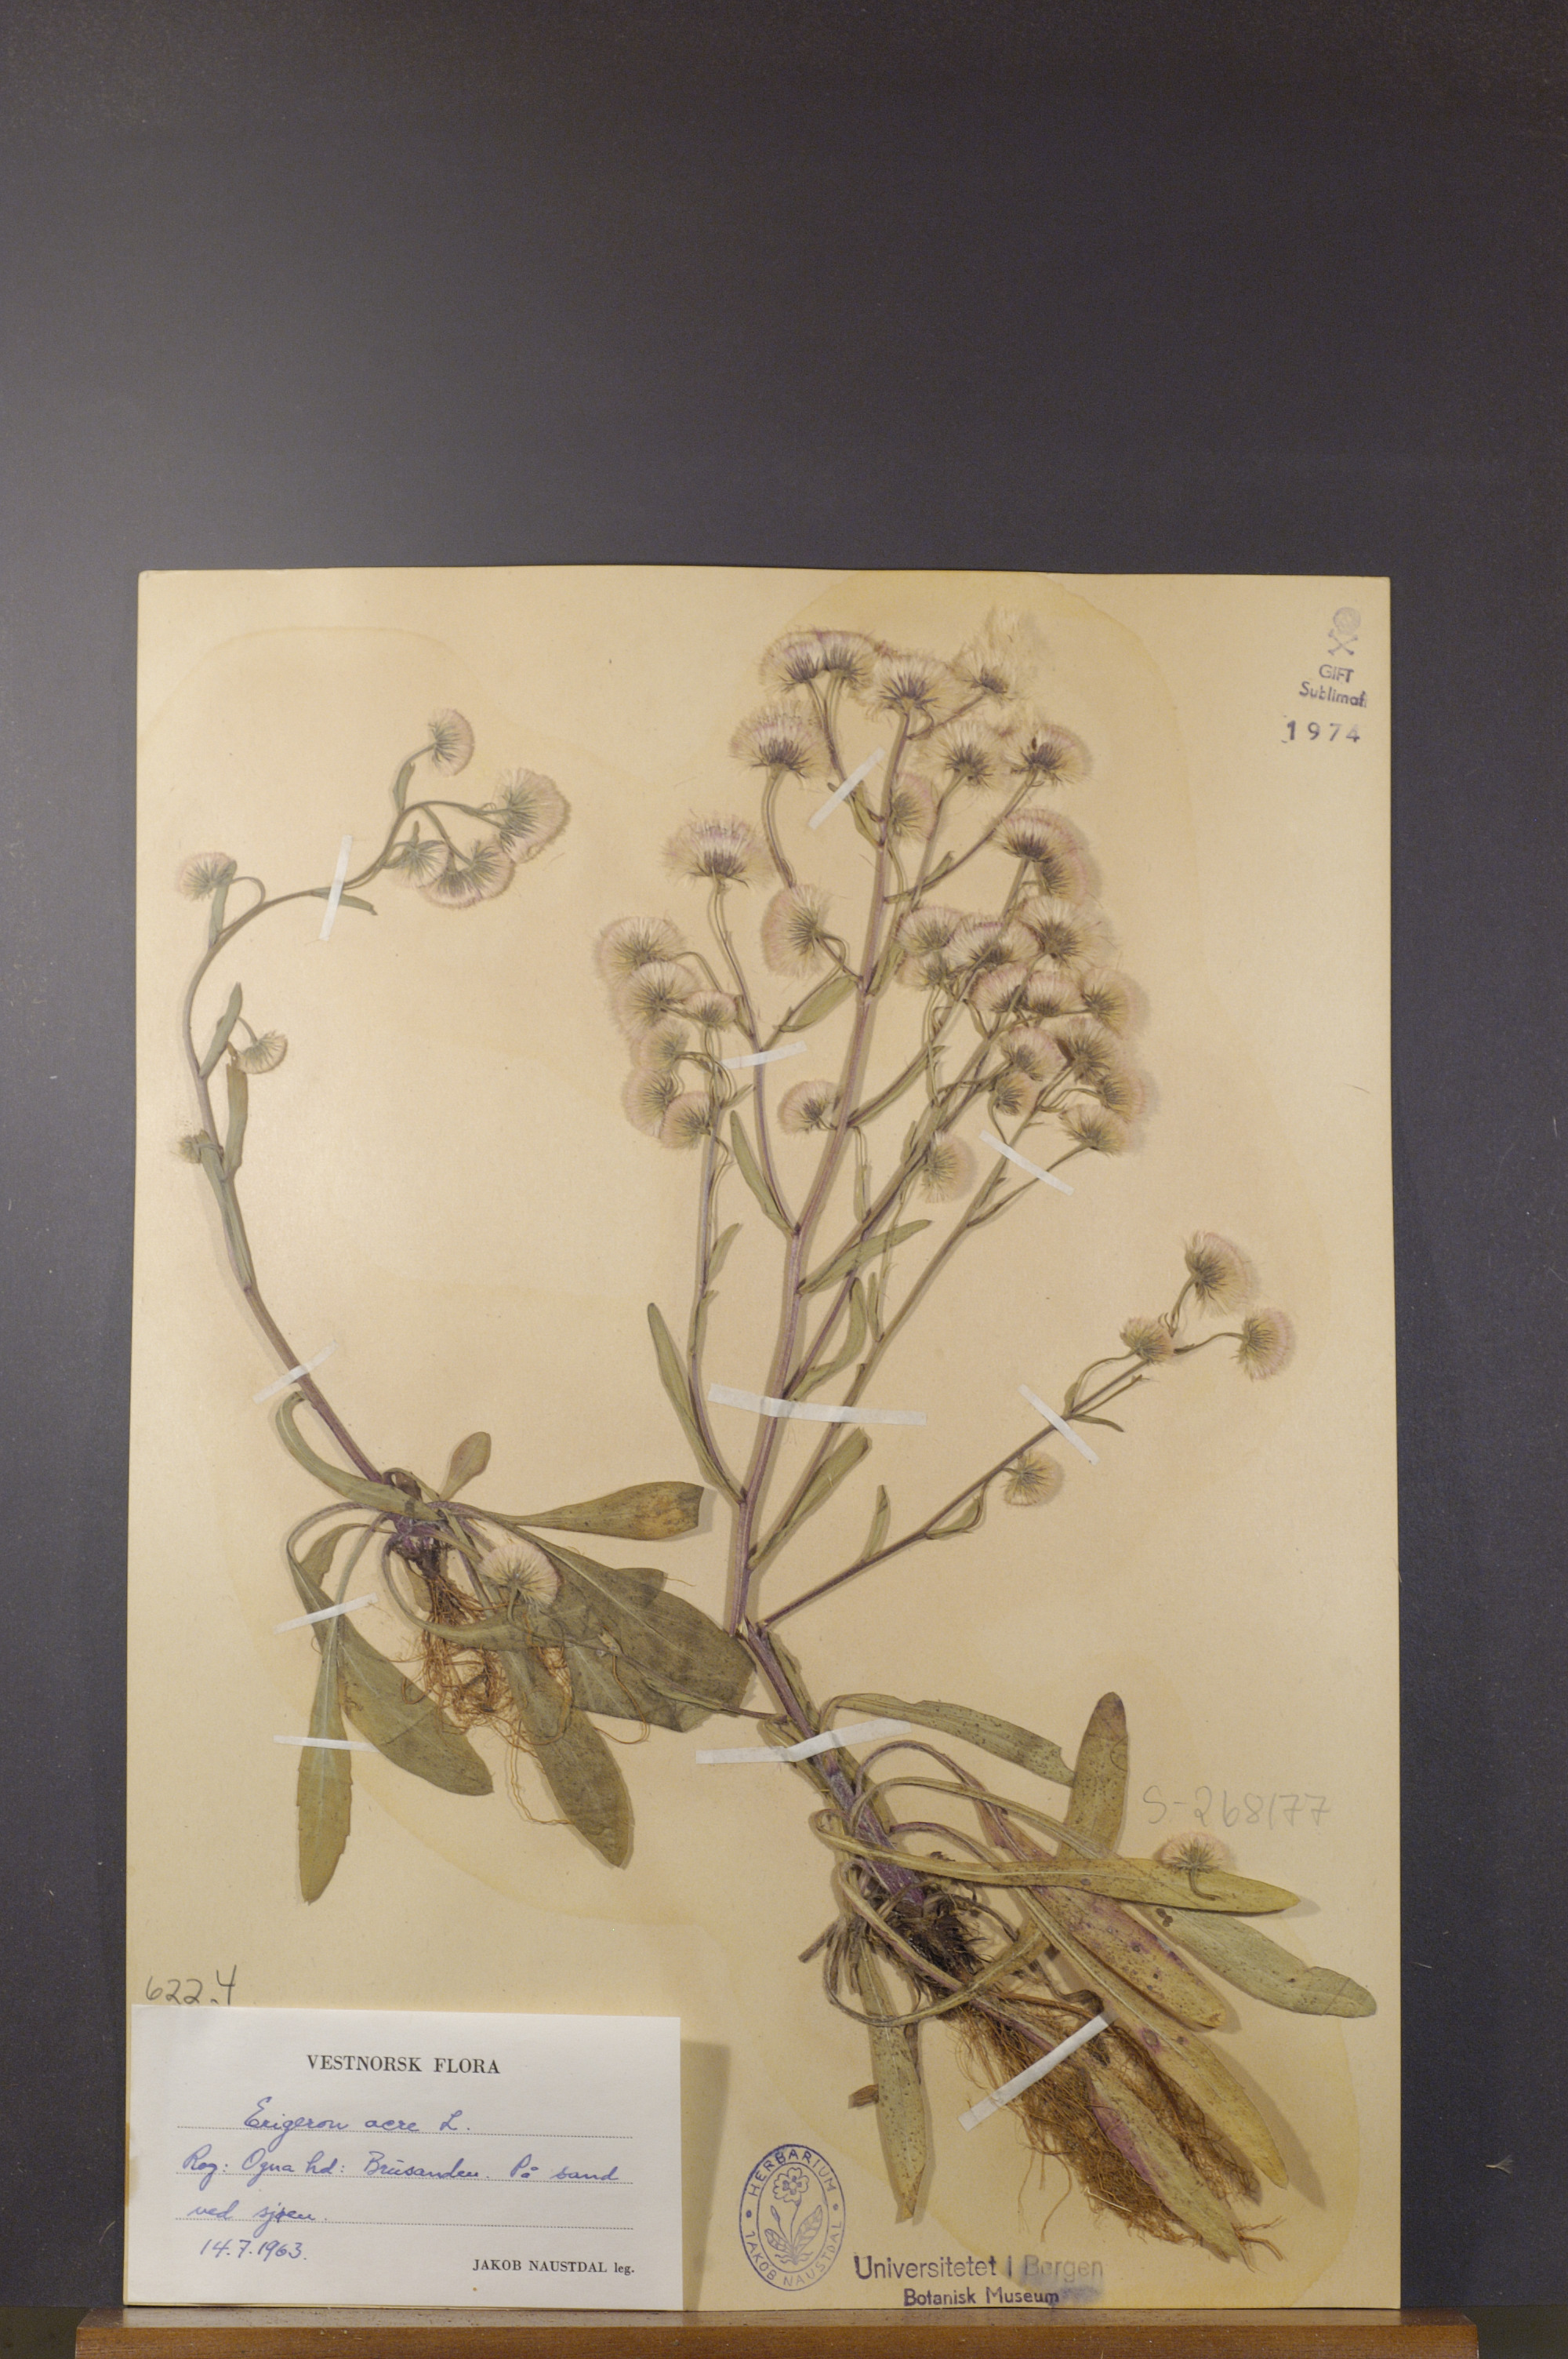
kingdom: Plantae
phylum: Tracheophyta
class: Magnoliopsida
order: Asterales
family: Asteraceae
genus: Erigeron
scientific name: Erigeron acris
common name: Blue fleabane
